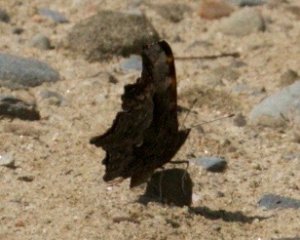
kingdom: Animalia
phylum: Arthropoda
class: Insecta
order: Lepidoptera
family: Nymphalidae
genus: Polygonia
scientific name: Polygonia progne
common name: Gray Comma
